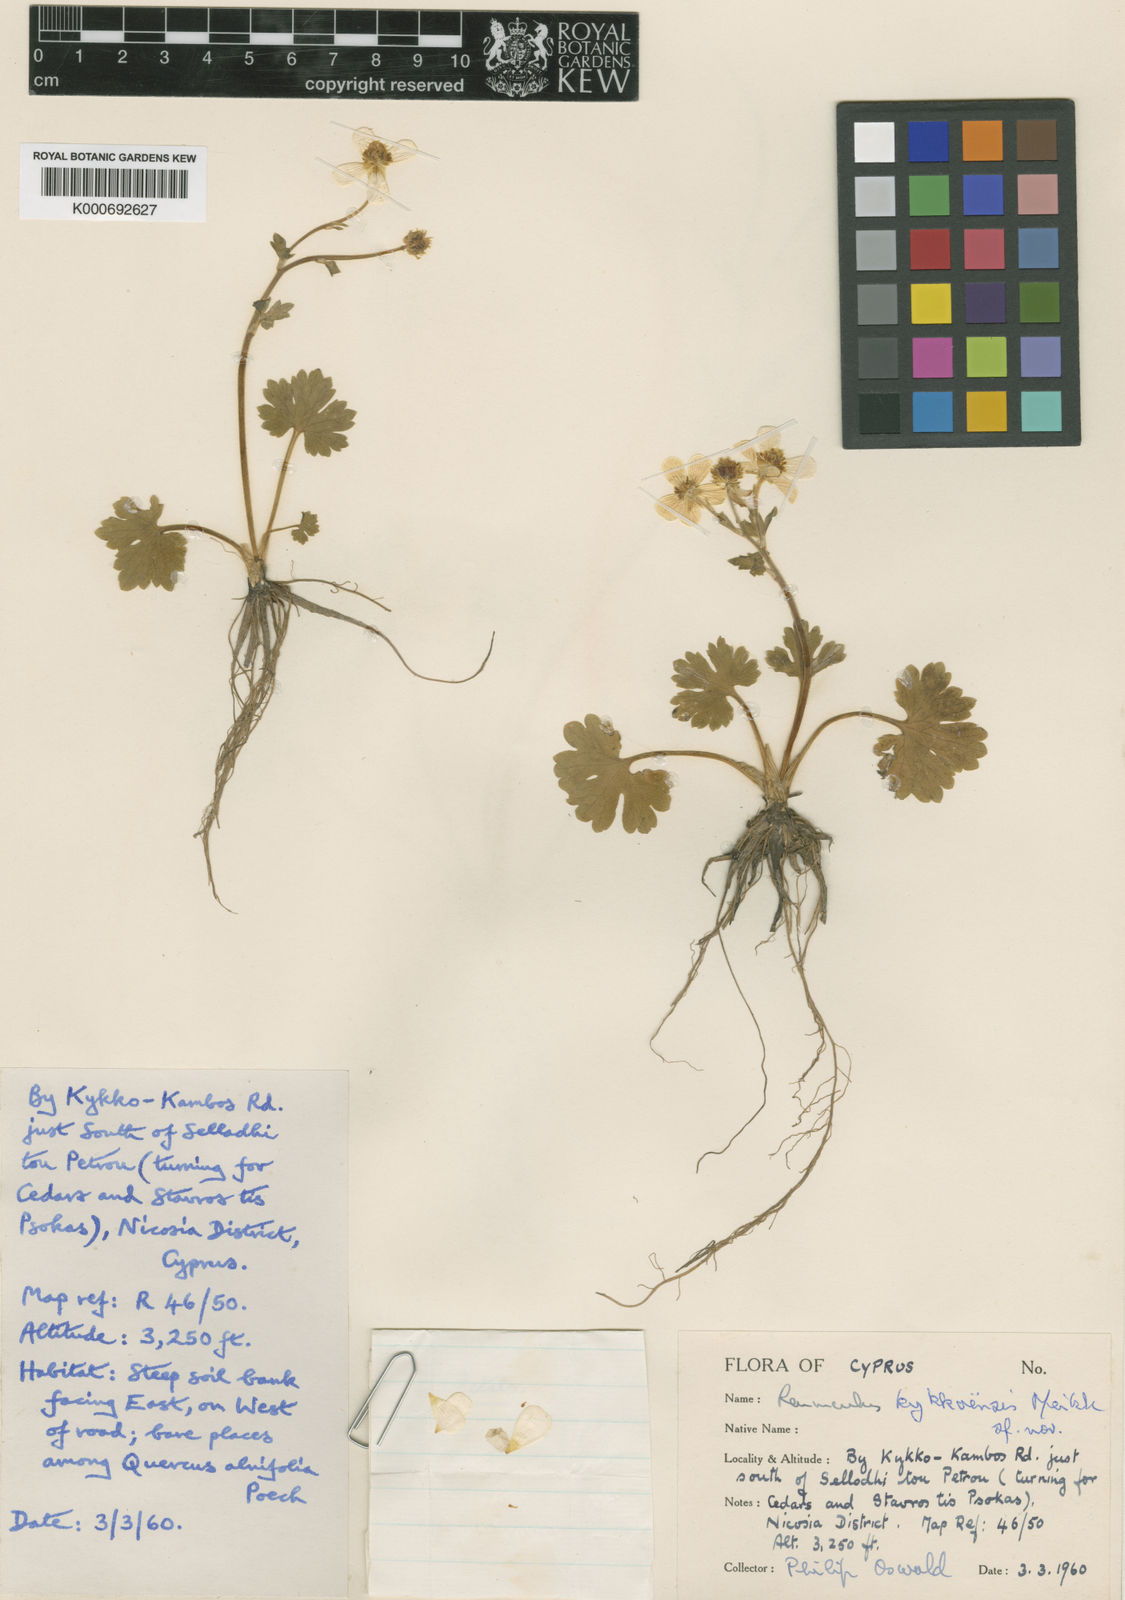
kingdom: Plantae
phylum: Tracheophyta
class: Magnoliopsida
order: Ranunculales
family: Ranunculaceae
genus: Ranunculus
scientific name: Ranunculus kykkoensis
